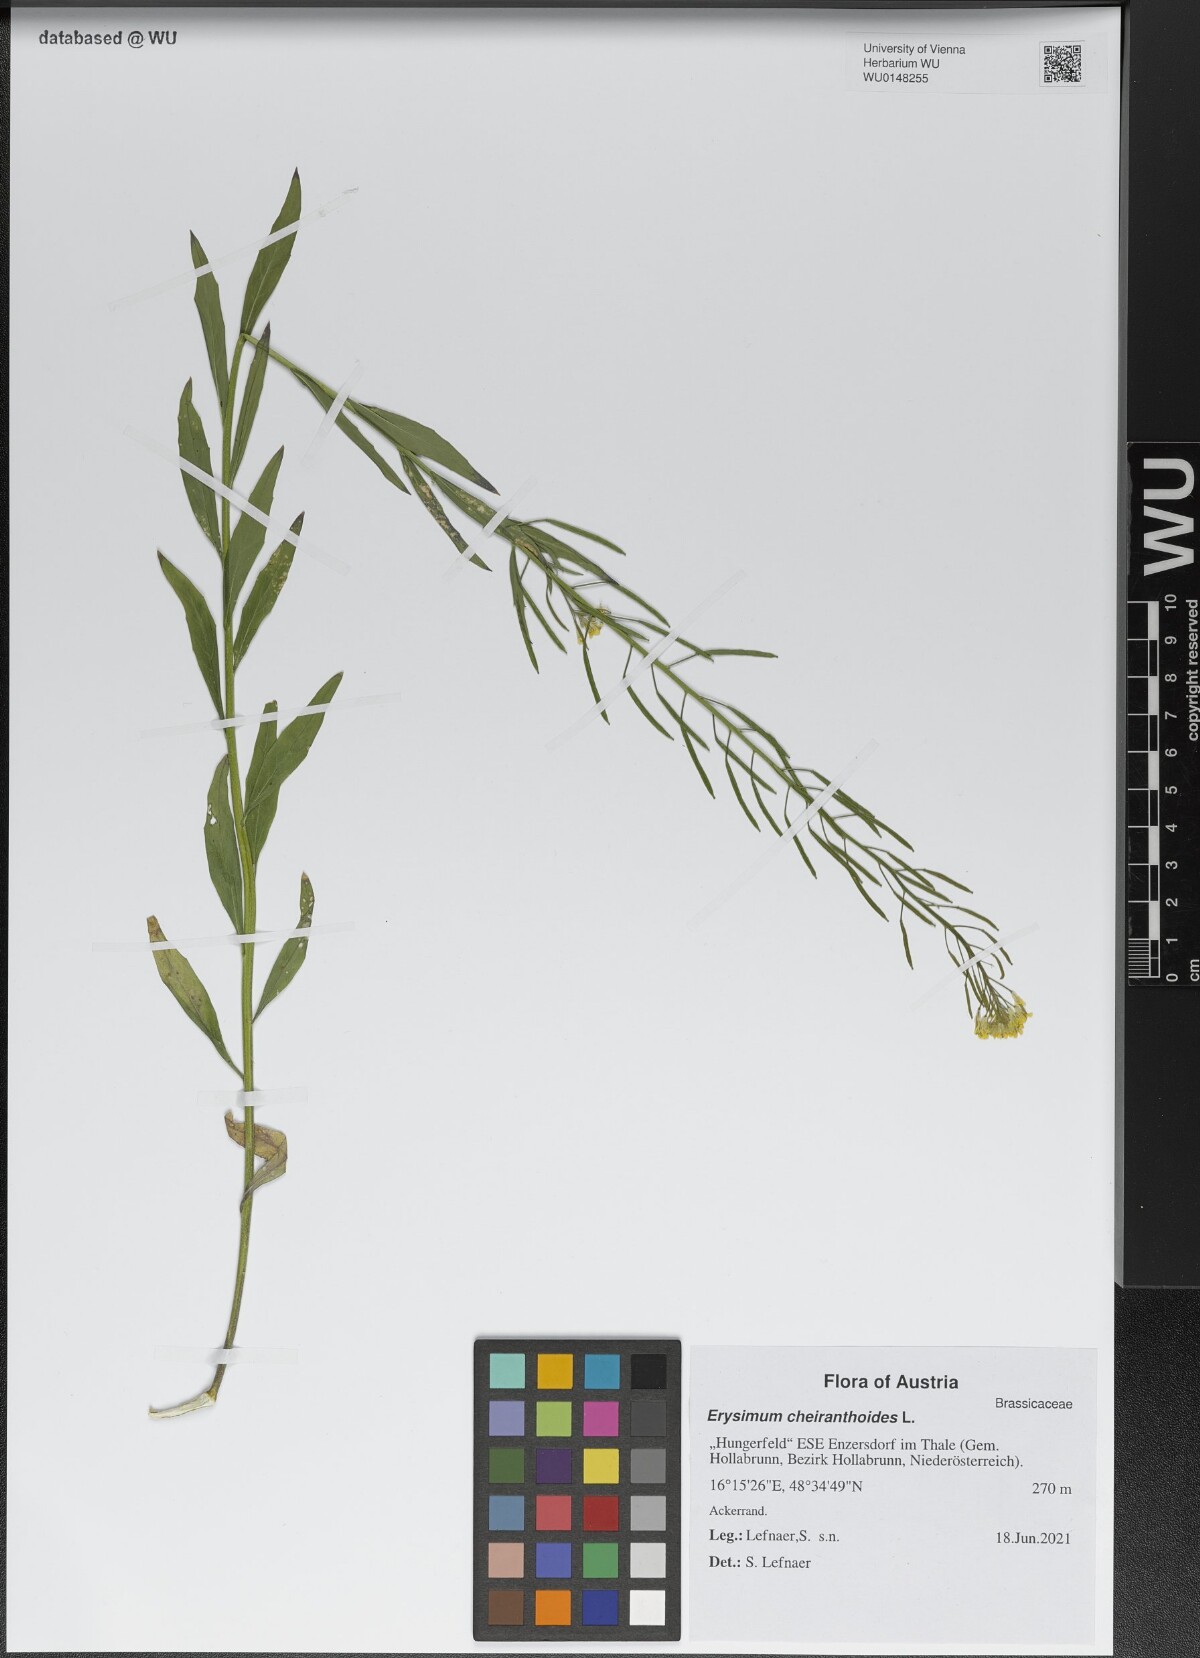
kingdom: Plantae
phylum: Tracheophyta
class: Magnoliopsida
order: Brassicales
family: Brassicaceae
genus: Erysimum
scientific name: Erysimum cheiranthoides
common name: Treacle mustard
